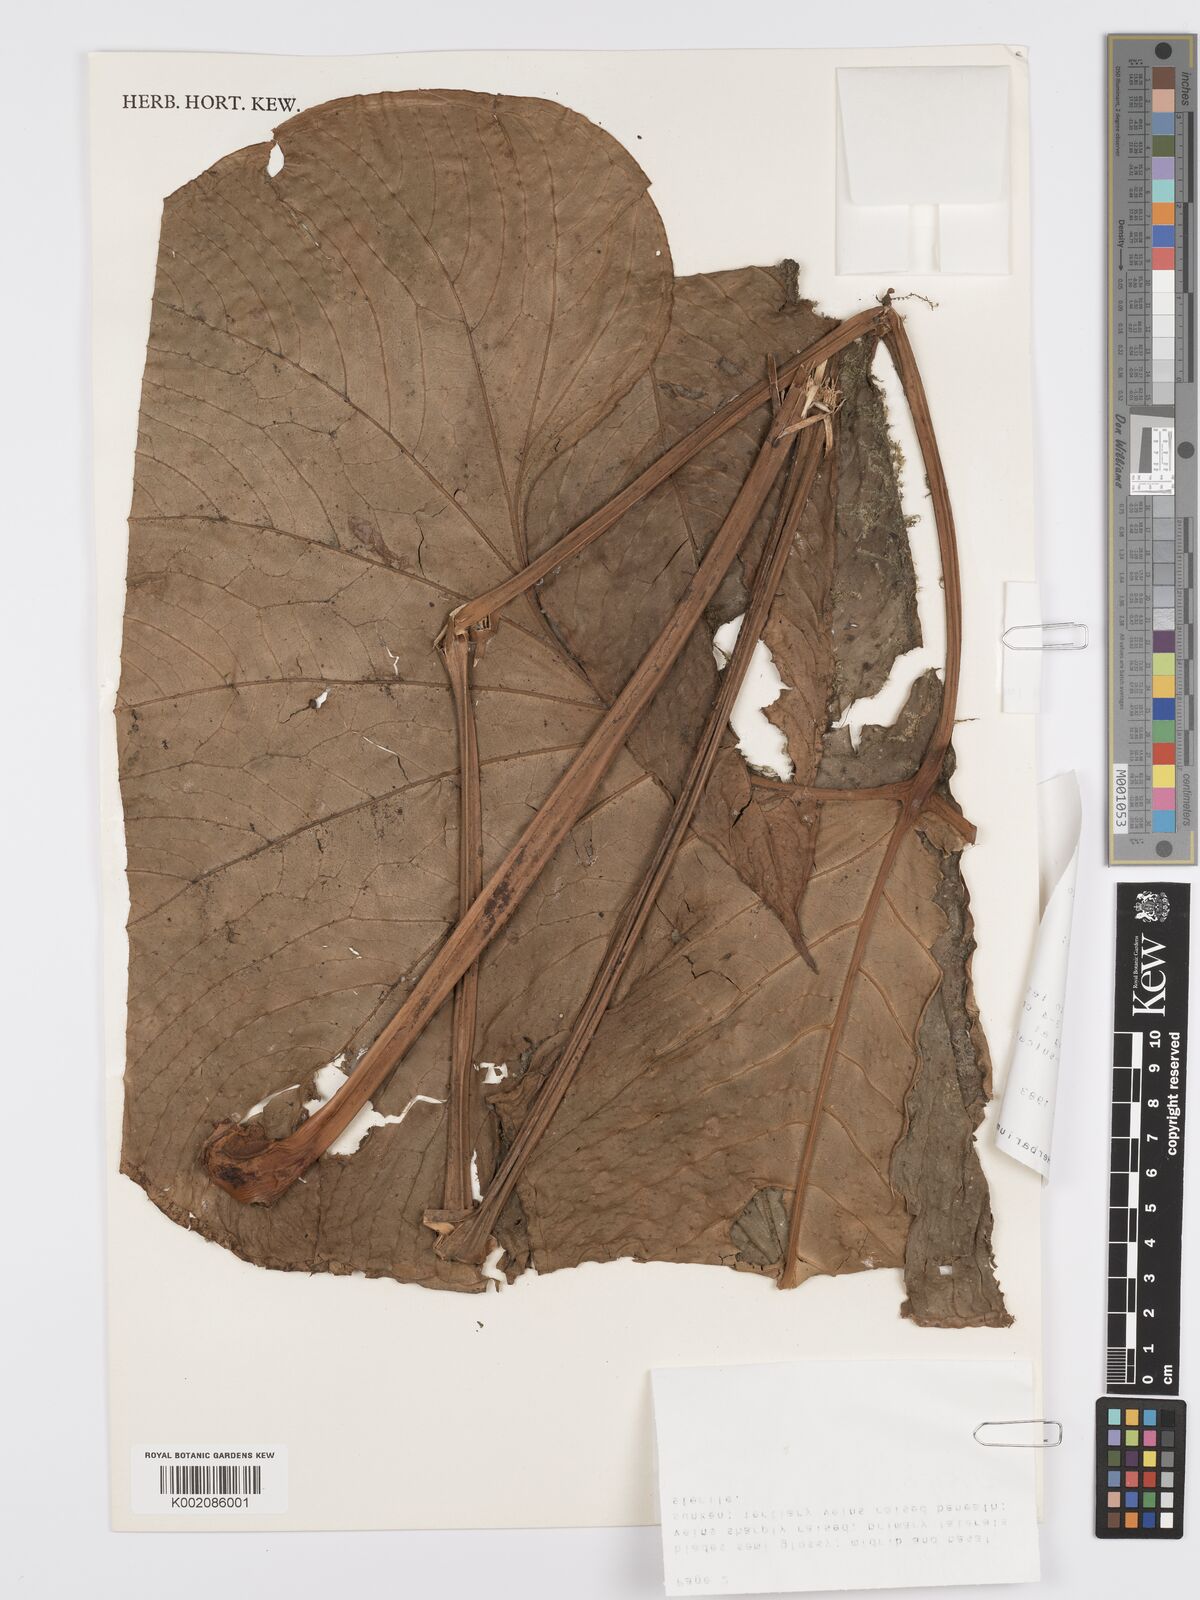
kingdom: Plantae
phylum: Tracheophyta
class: Liliopsida
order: Alismatales
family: Araceae
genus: Anthurium
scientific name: Anthurium draconopterum
